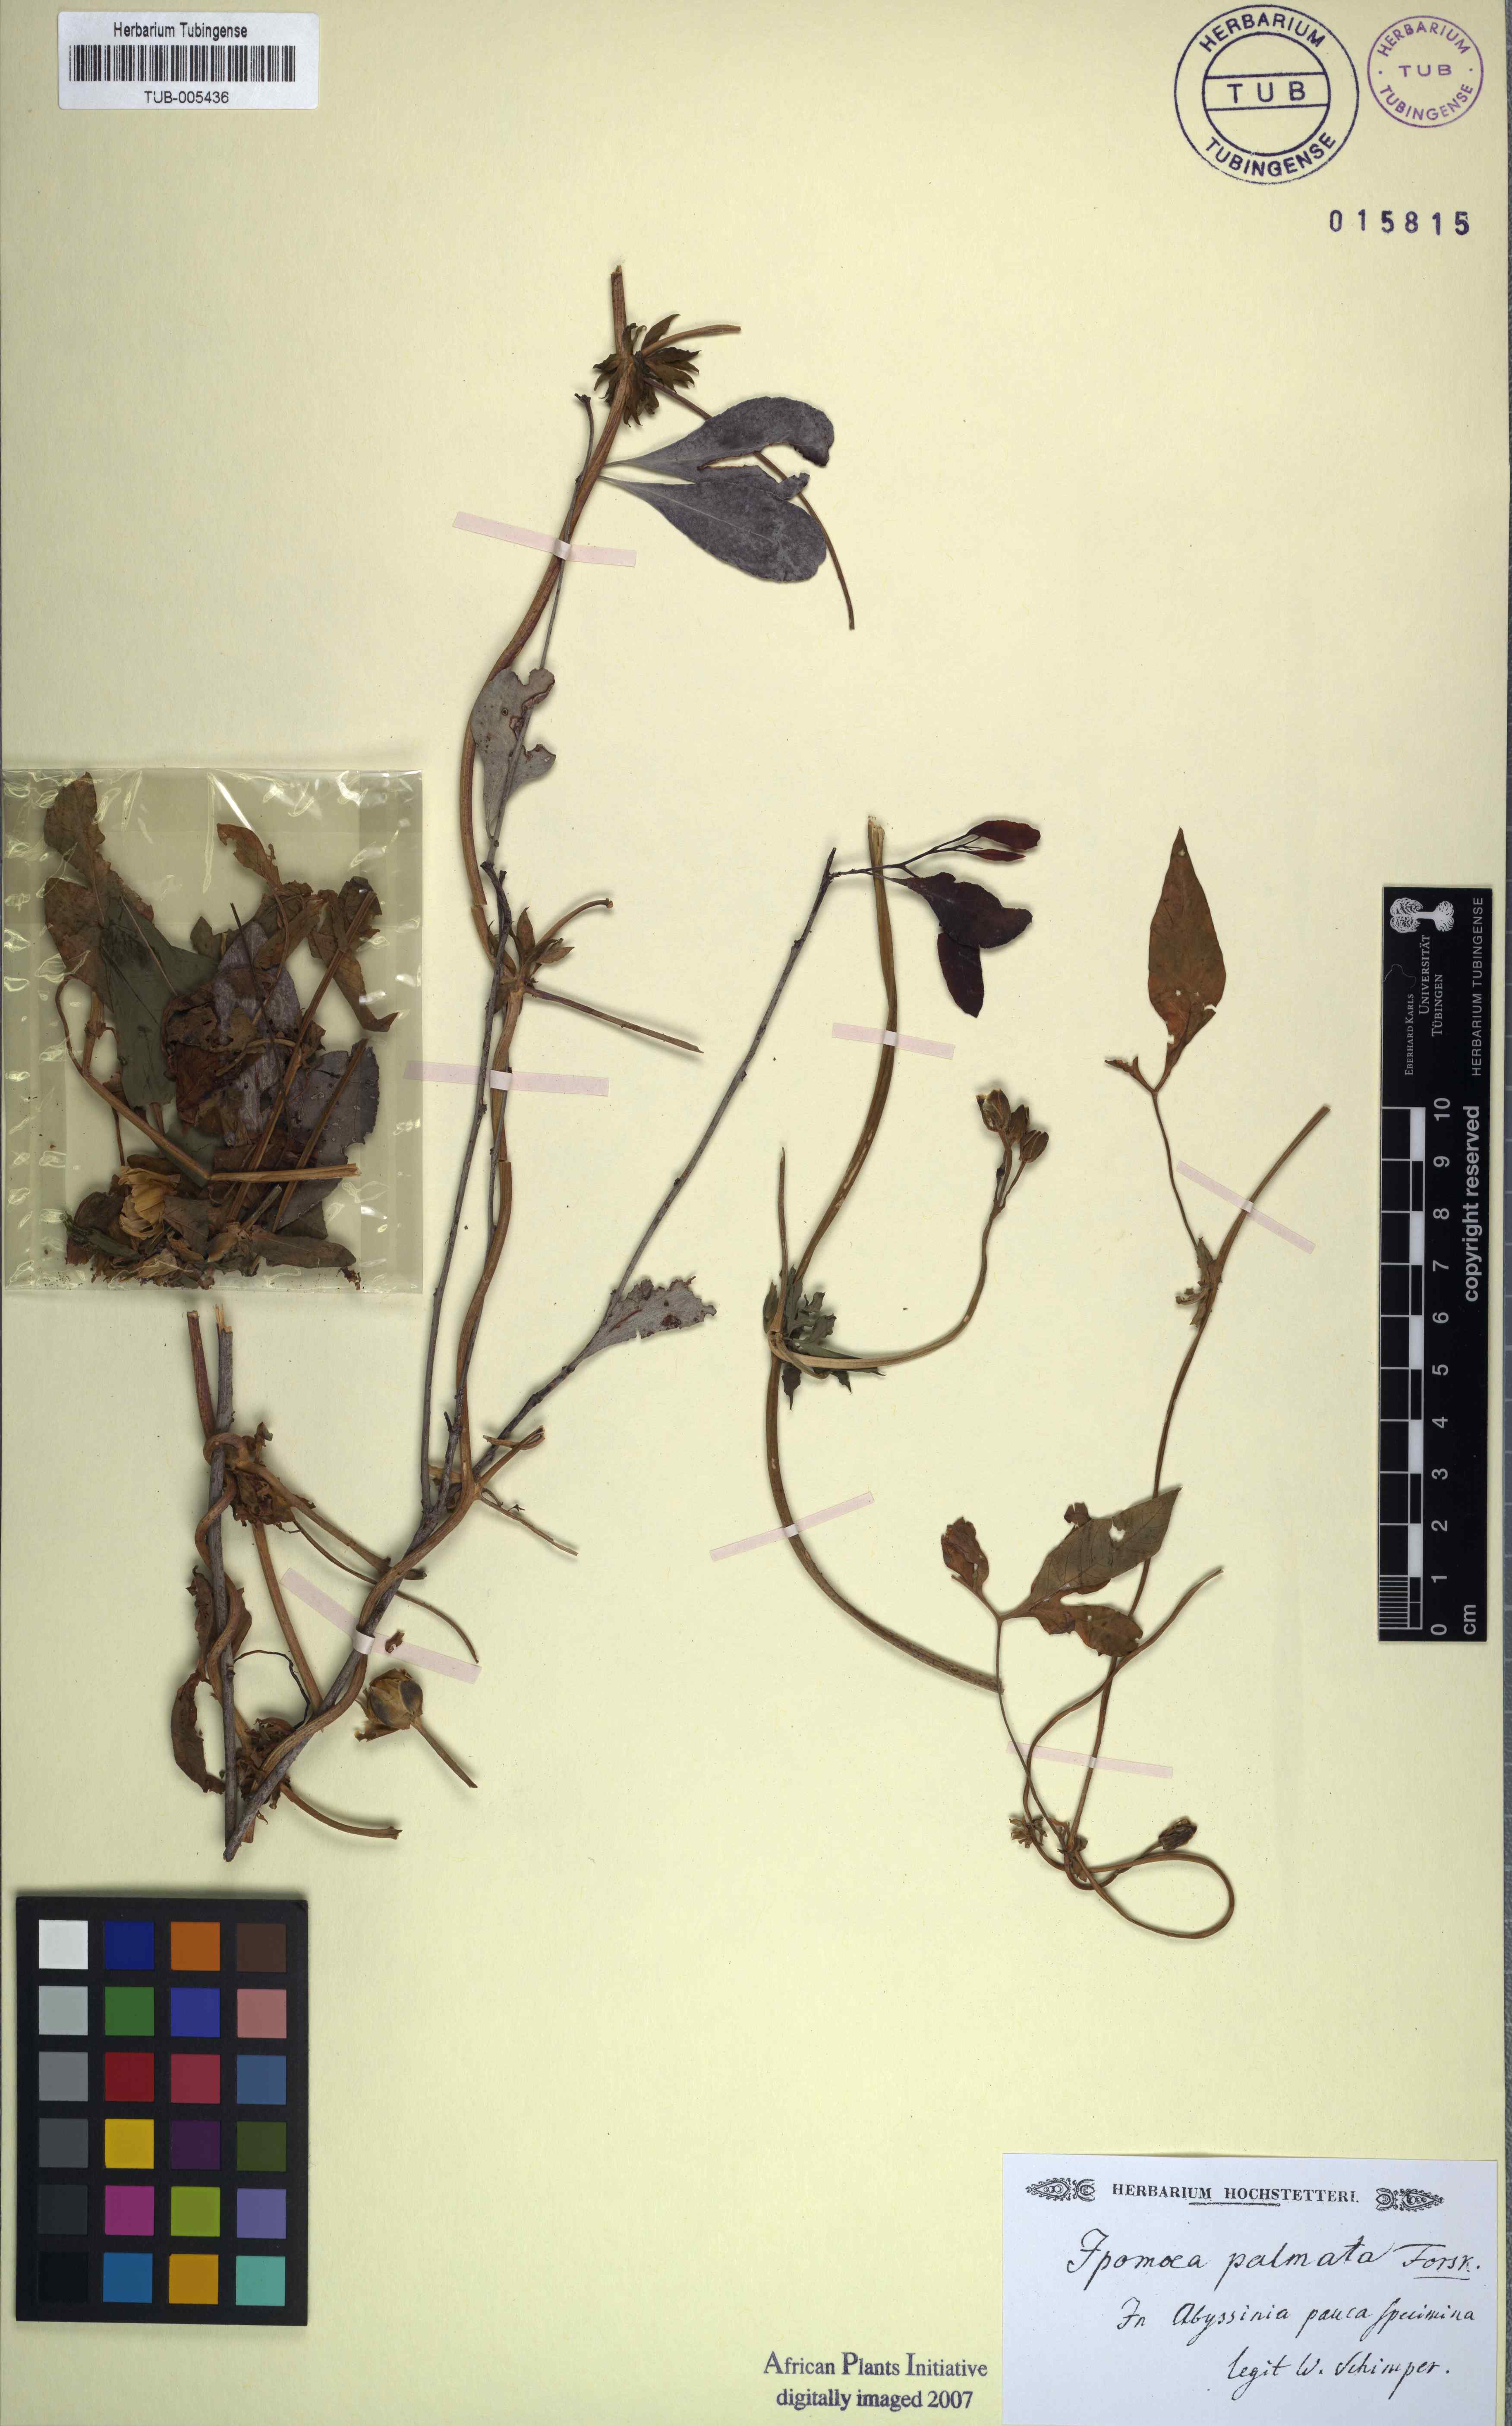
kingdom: Plantae
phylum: Tracheophyta
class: Magnoliopsida
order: Solanales
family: Convolvulaceae
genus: Ipomoea
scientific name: Ipomoea cairica
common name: Mile a minute vine
